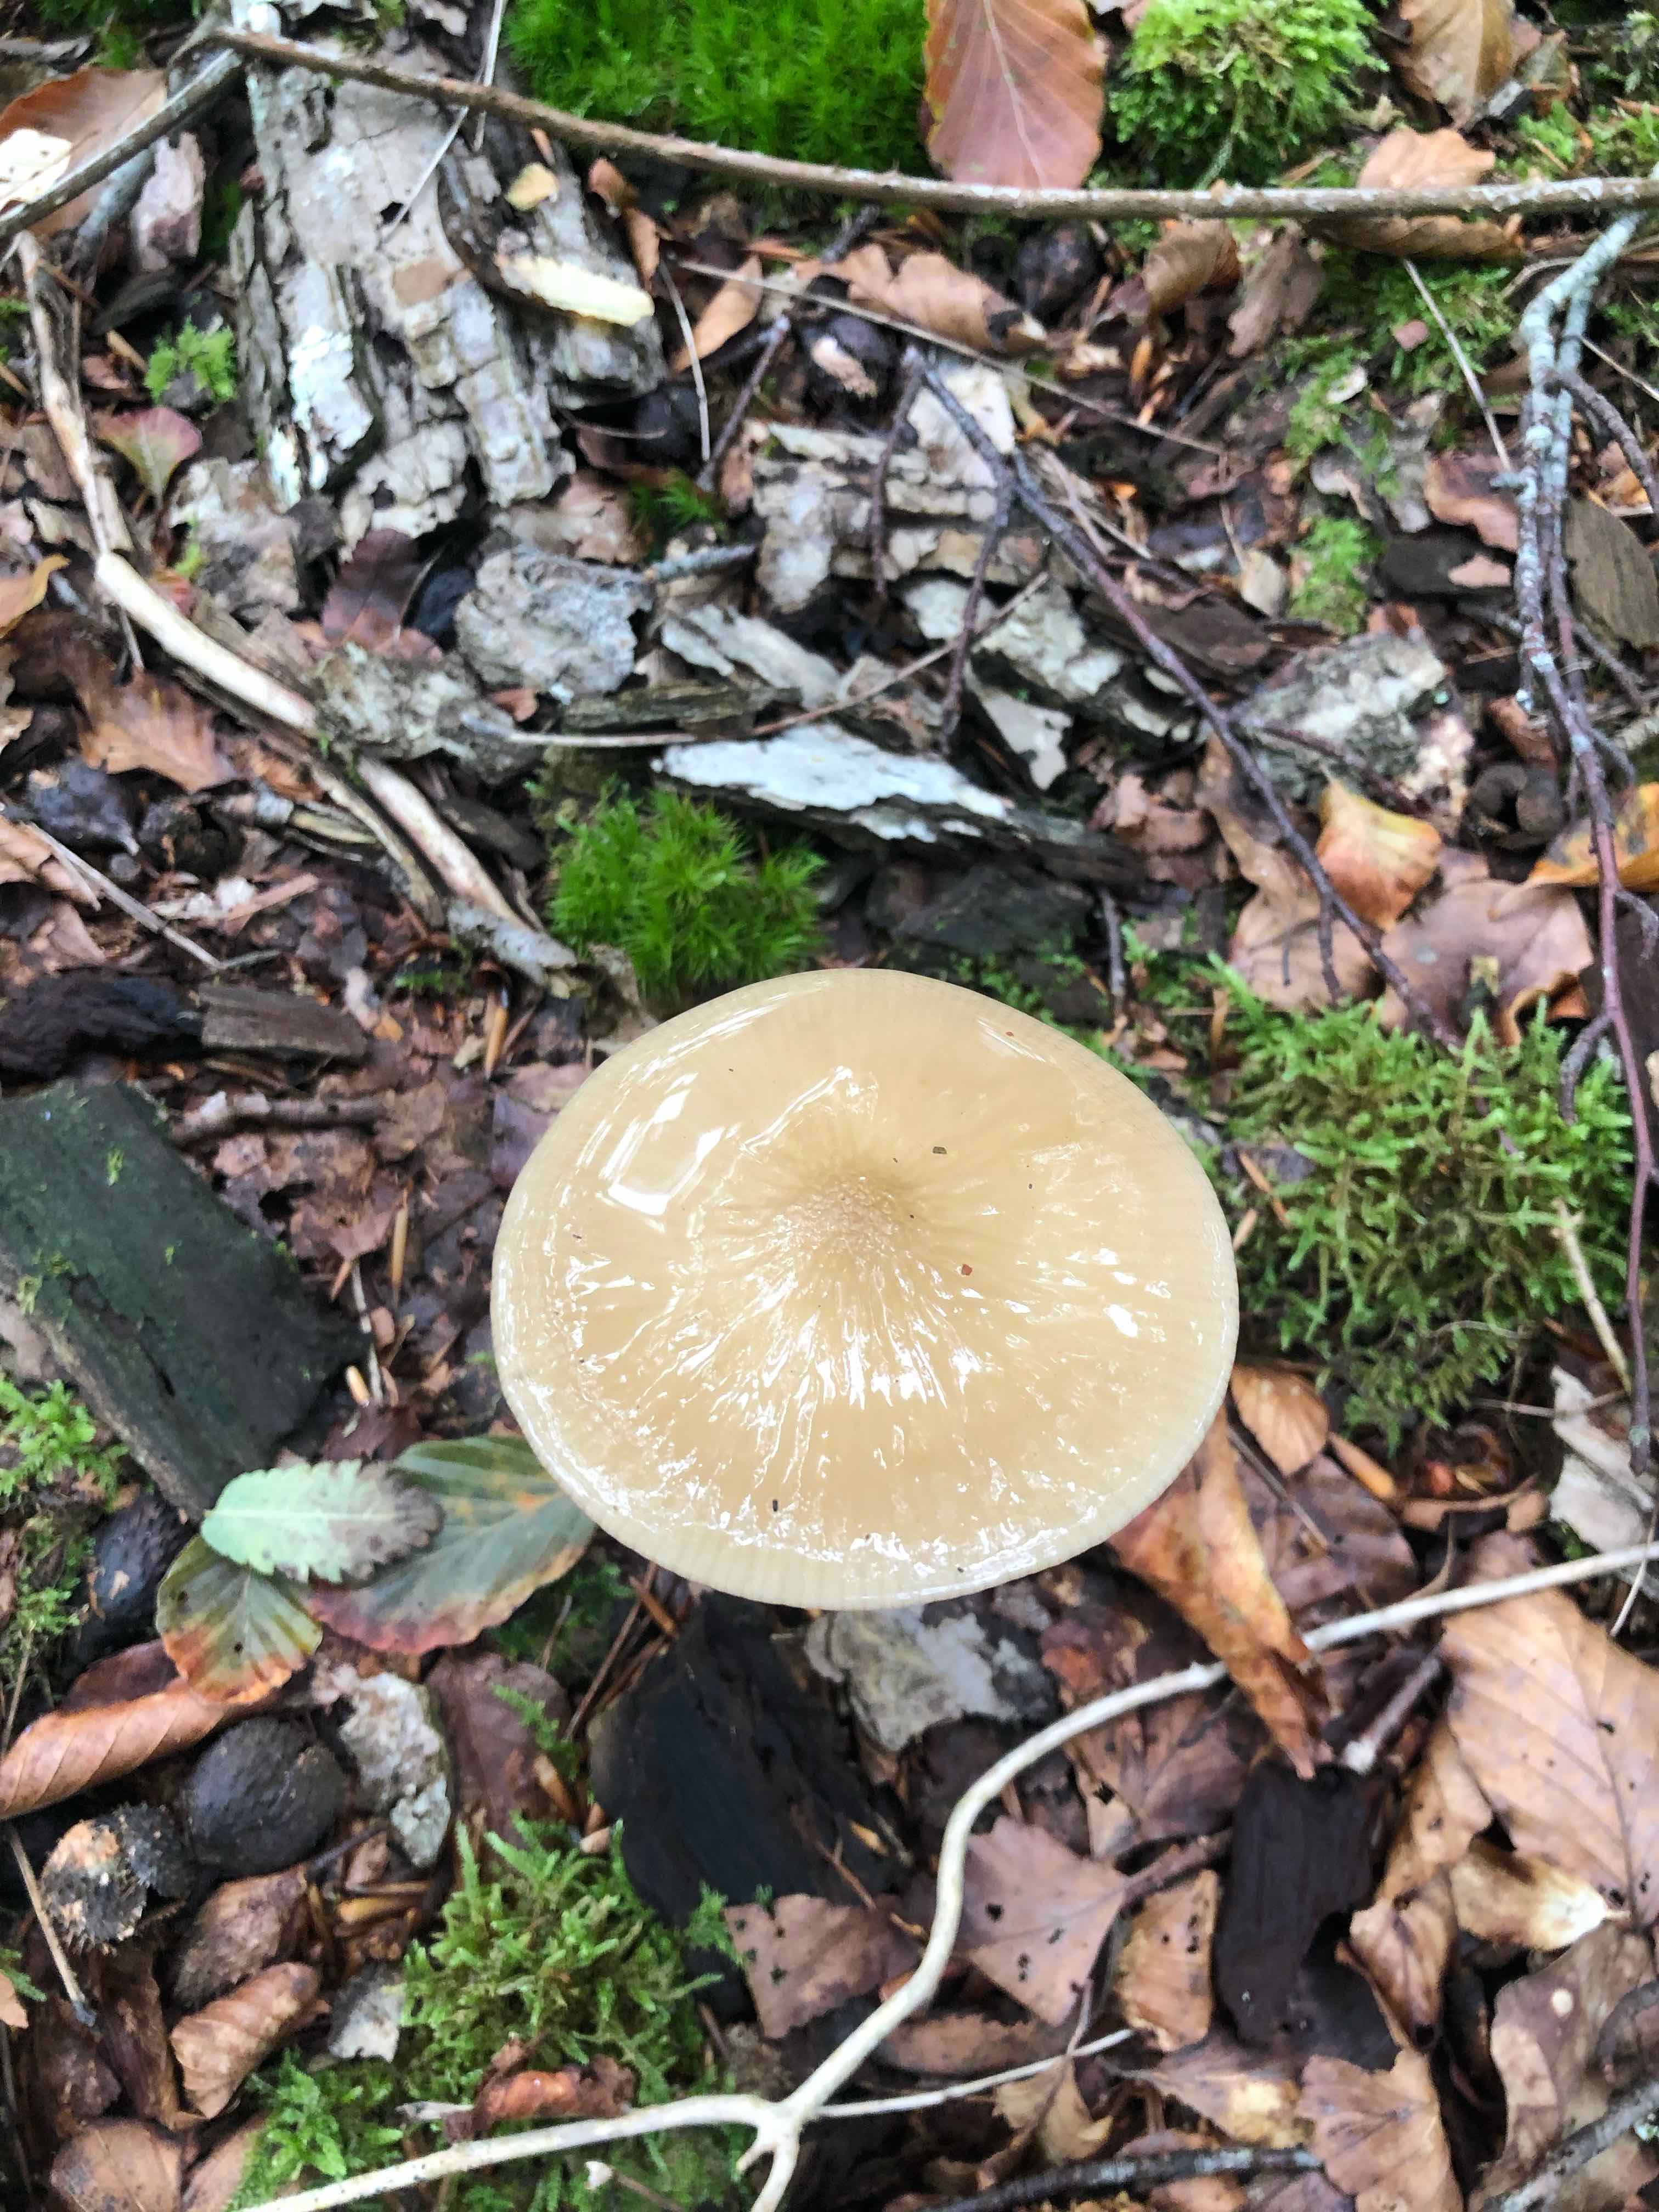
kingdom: Fungi
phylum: Basidiomycota
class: Agaricomycetes
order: Agaricales
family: Physalacriaceae
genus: Hymenopellis
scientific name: Hymenopellis radicata
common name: almindelig pælerodshat
